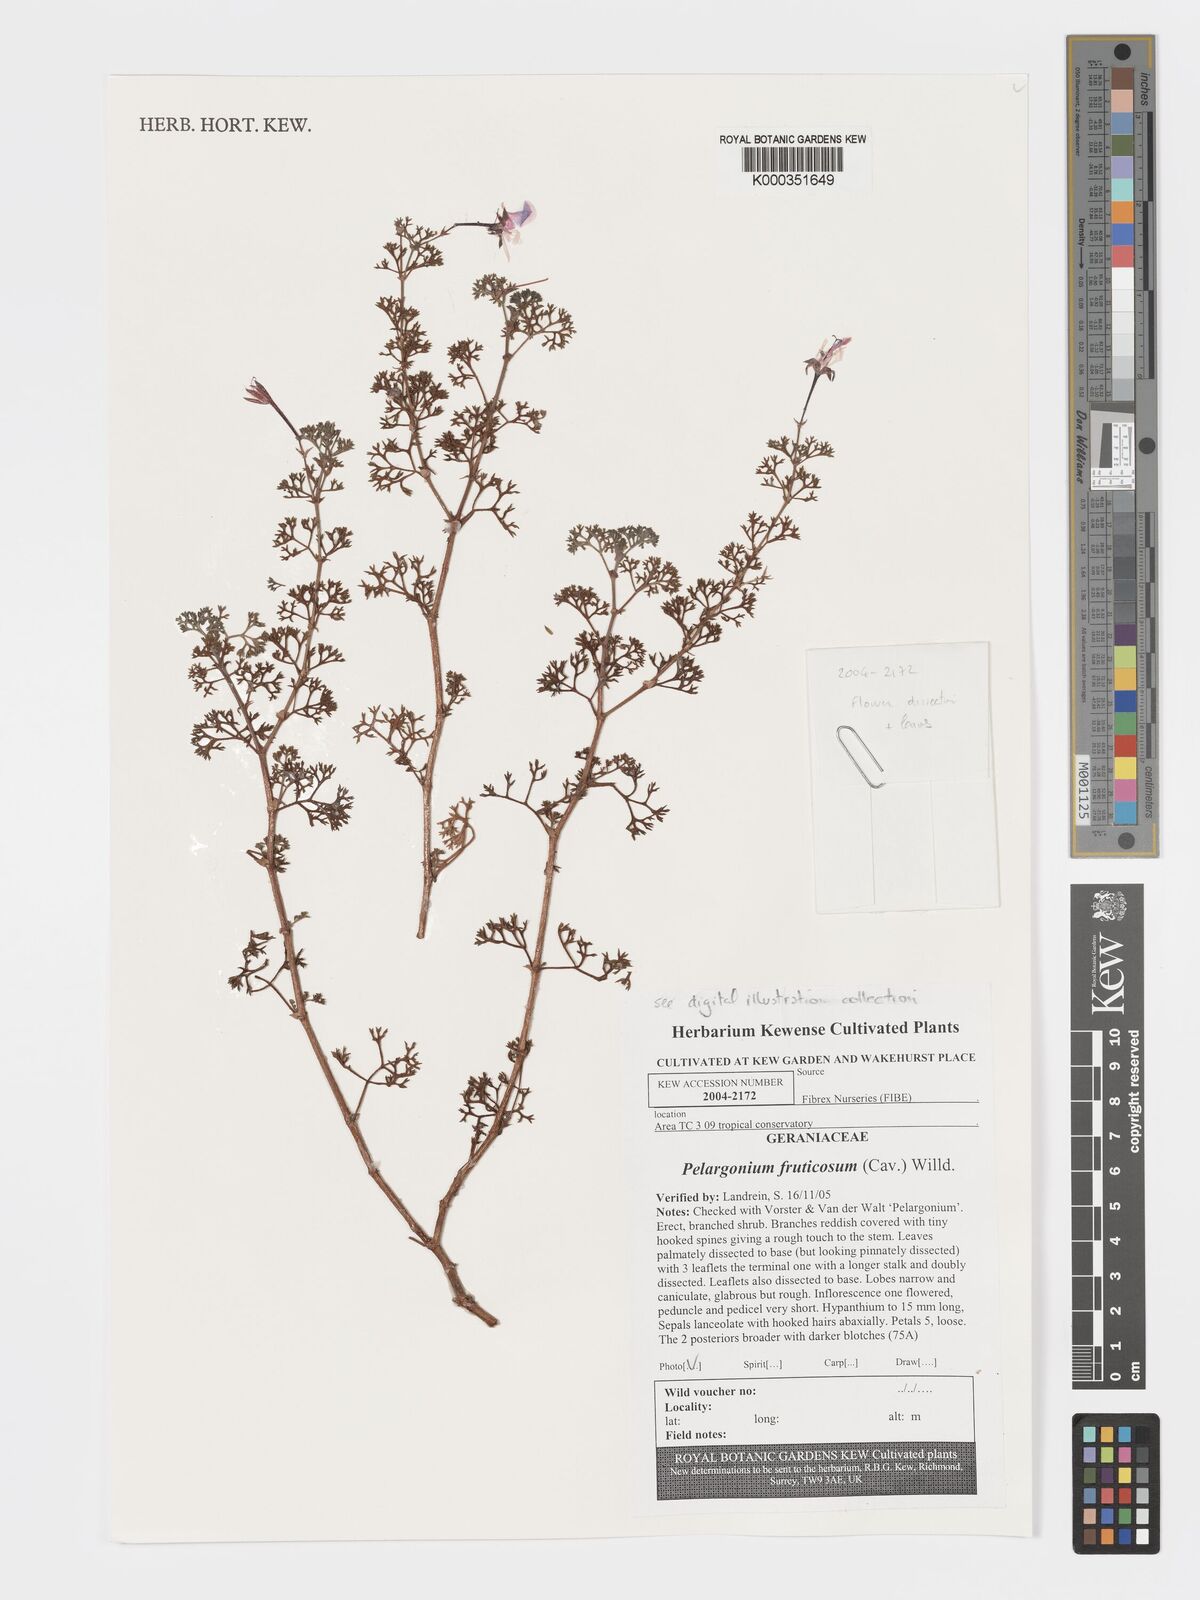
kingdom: Plantae
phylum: Tracheophyta
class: Magnoliopsida
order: Geraniales
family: Geraniaceae
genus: Pelargonium
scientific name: Pelargonium fruticosum
